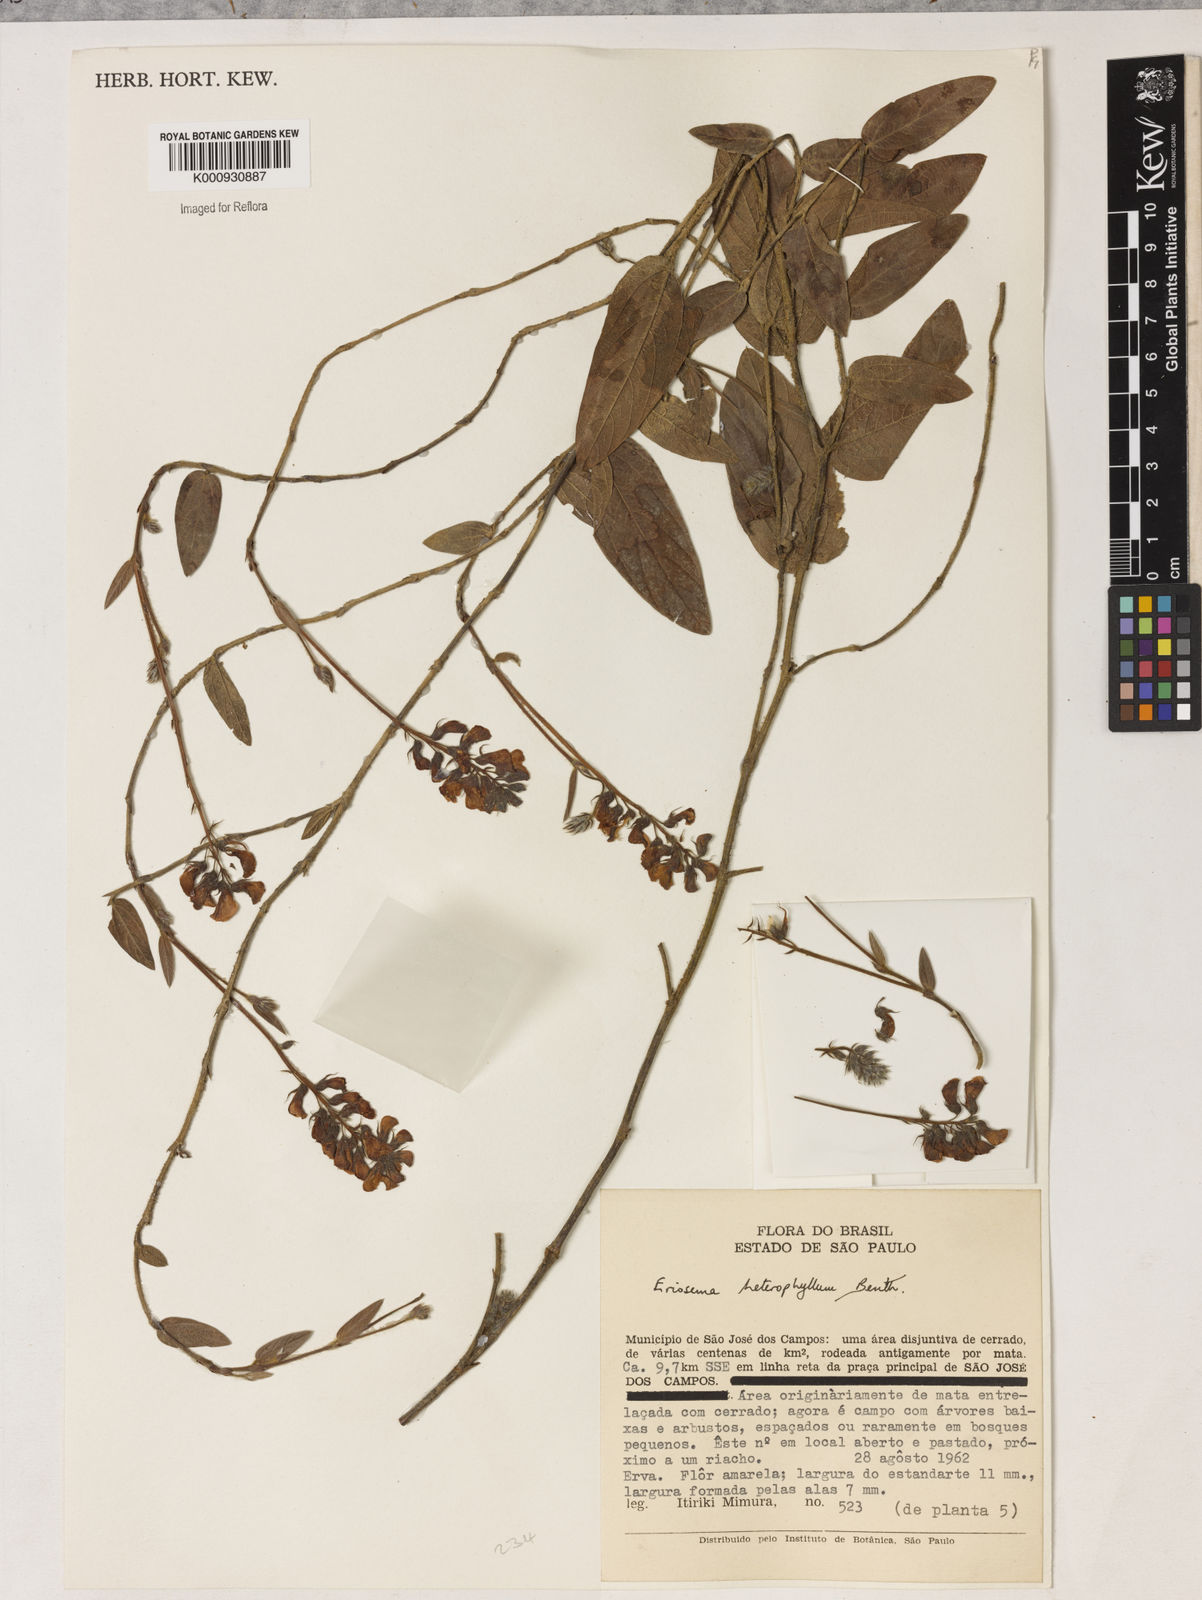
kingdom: Plantae
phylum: Tracheophyta
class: Magnoliopsida
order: Fabales
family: Fabaceae
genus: Eriosema
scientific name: Eriosema heterophyllum
